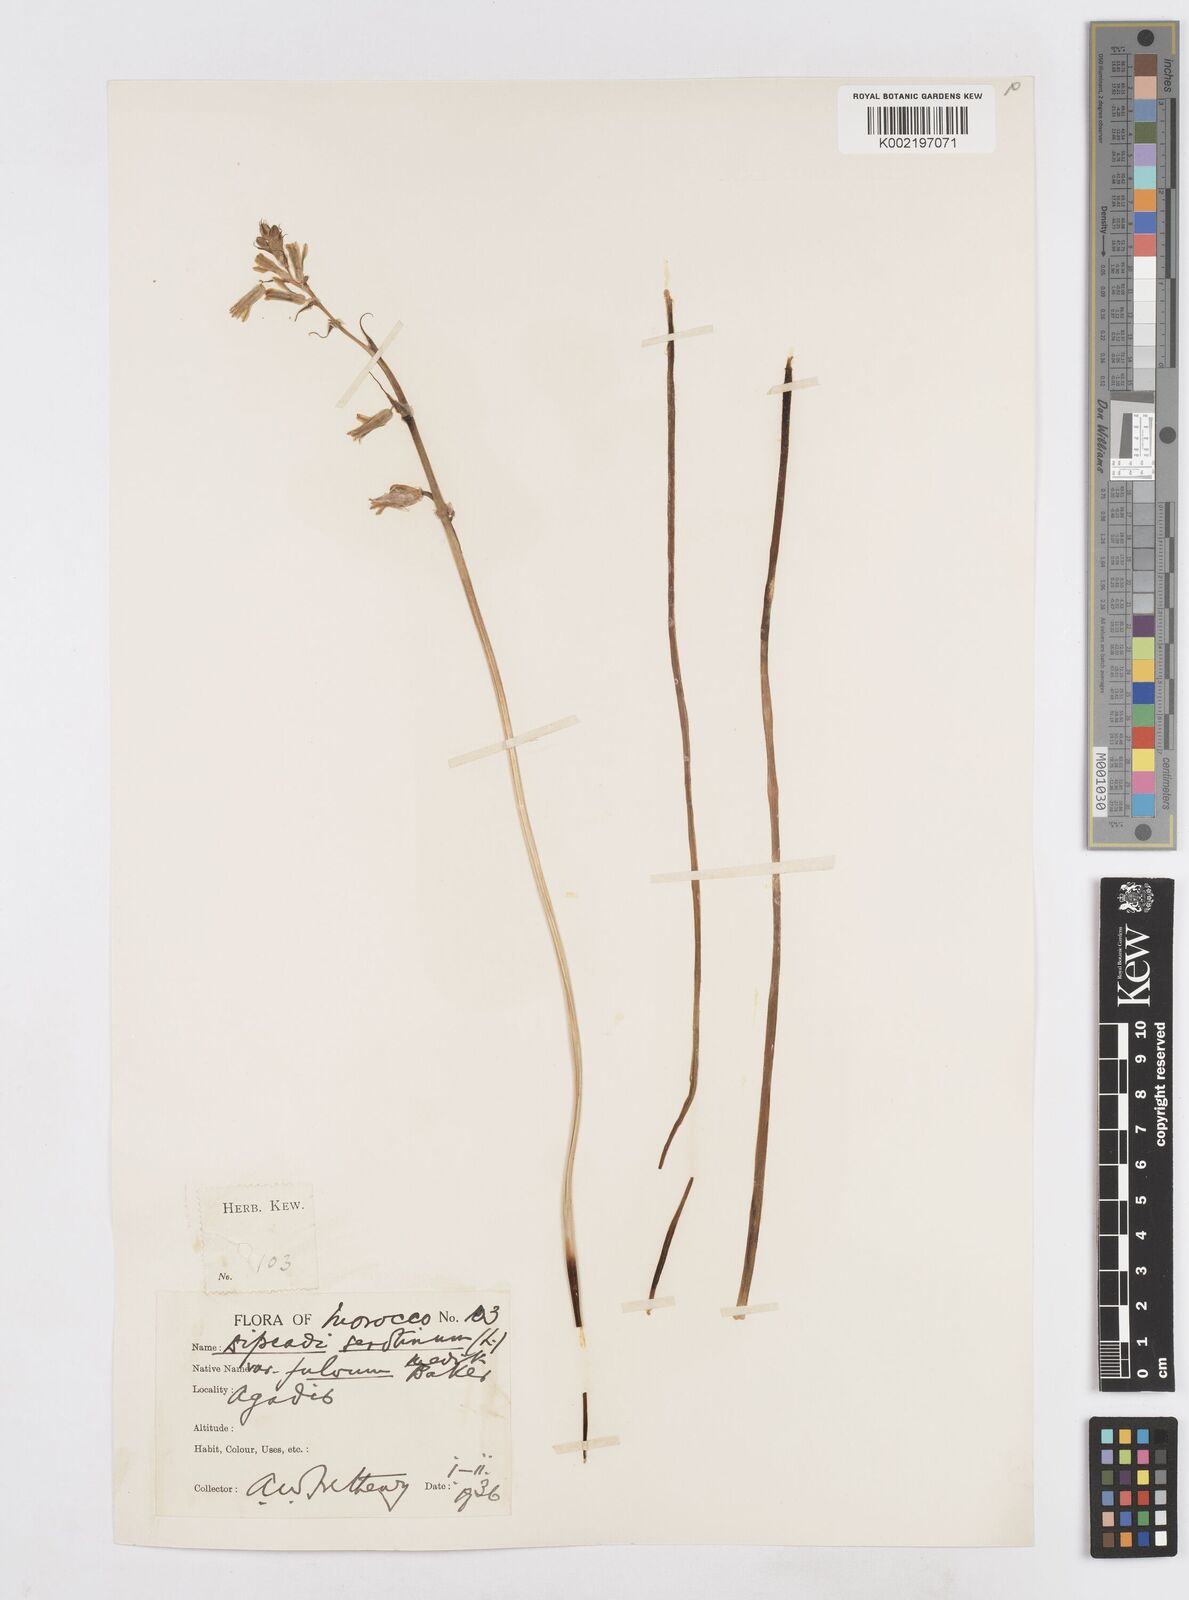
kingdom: Plantae
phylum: Tracheophyta
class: Liliopsida
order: Asparagales
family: Asparagaceae
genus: Dipcadi
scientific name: Dipcadi serotinum
